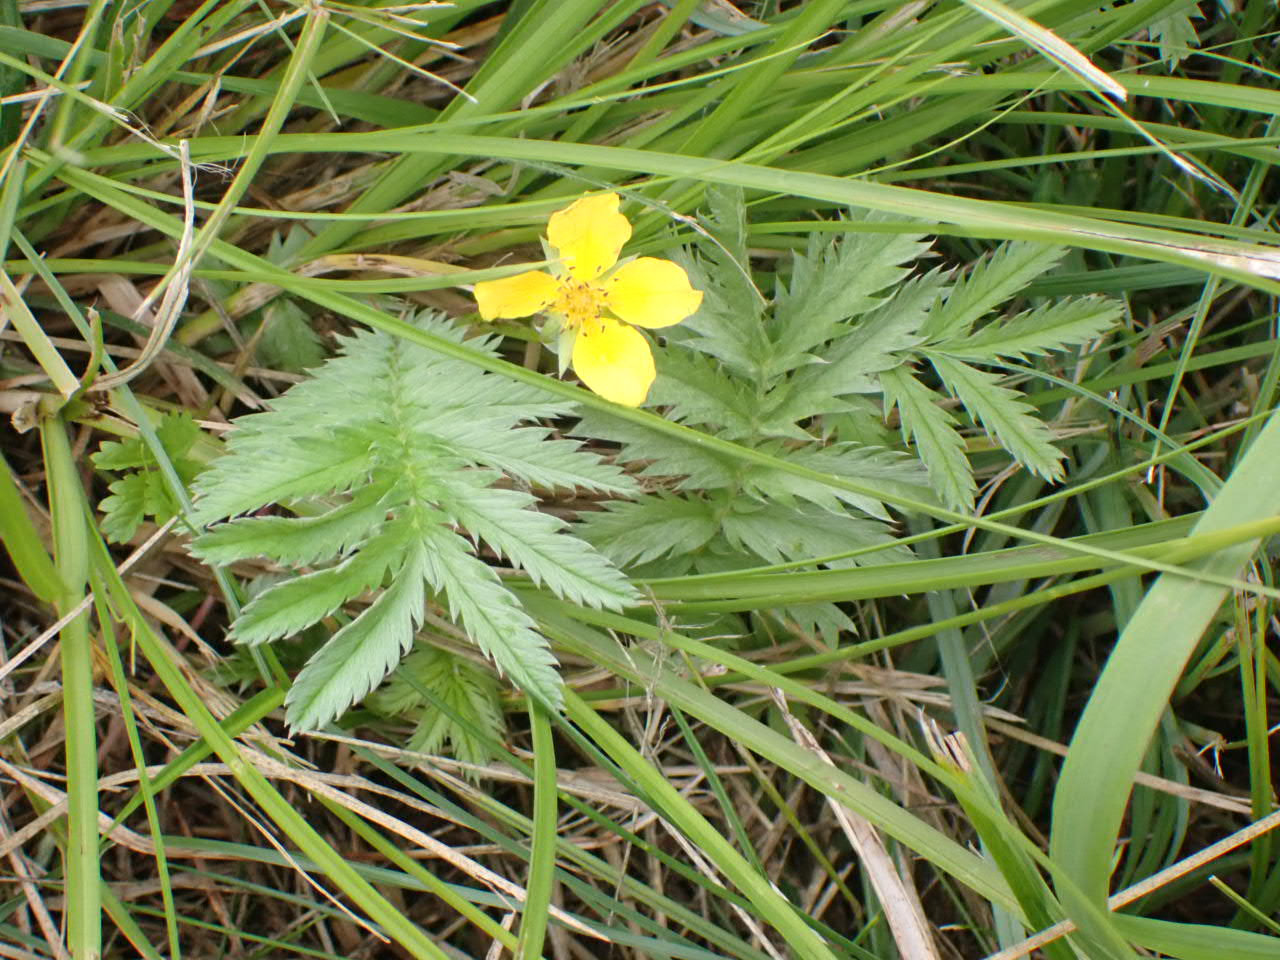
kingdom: Plantae
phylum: Tracheophyta
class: Magnoliopsida
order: Rosales
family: Rosaceae
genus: Argentina
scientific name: Argentina anserina
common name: Gåsepotentil
